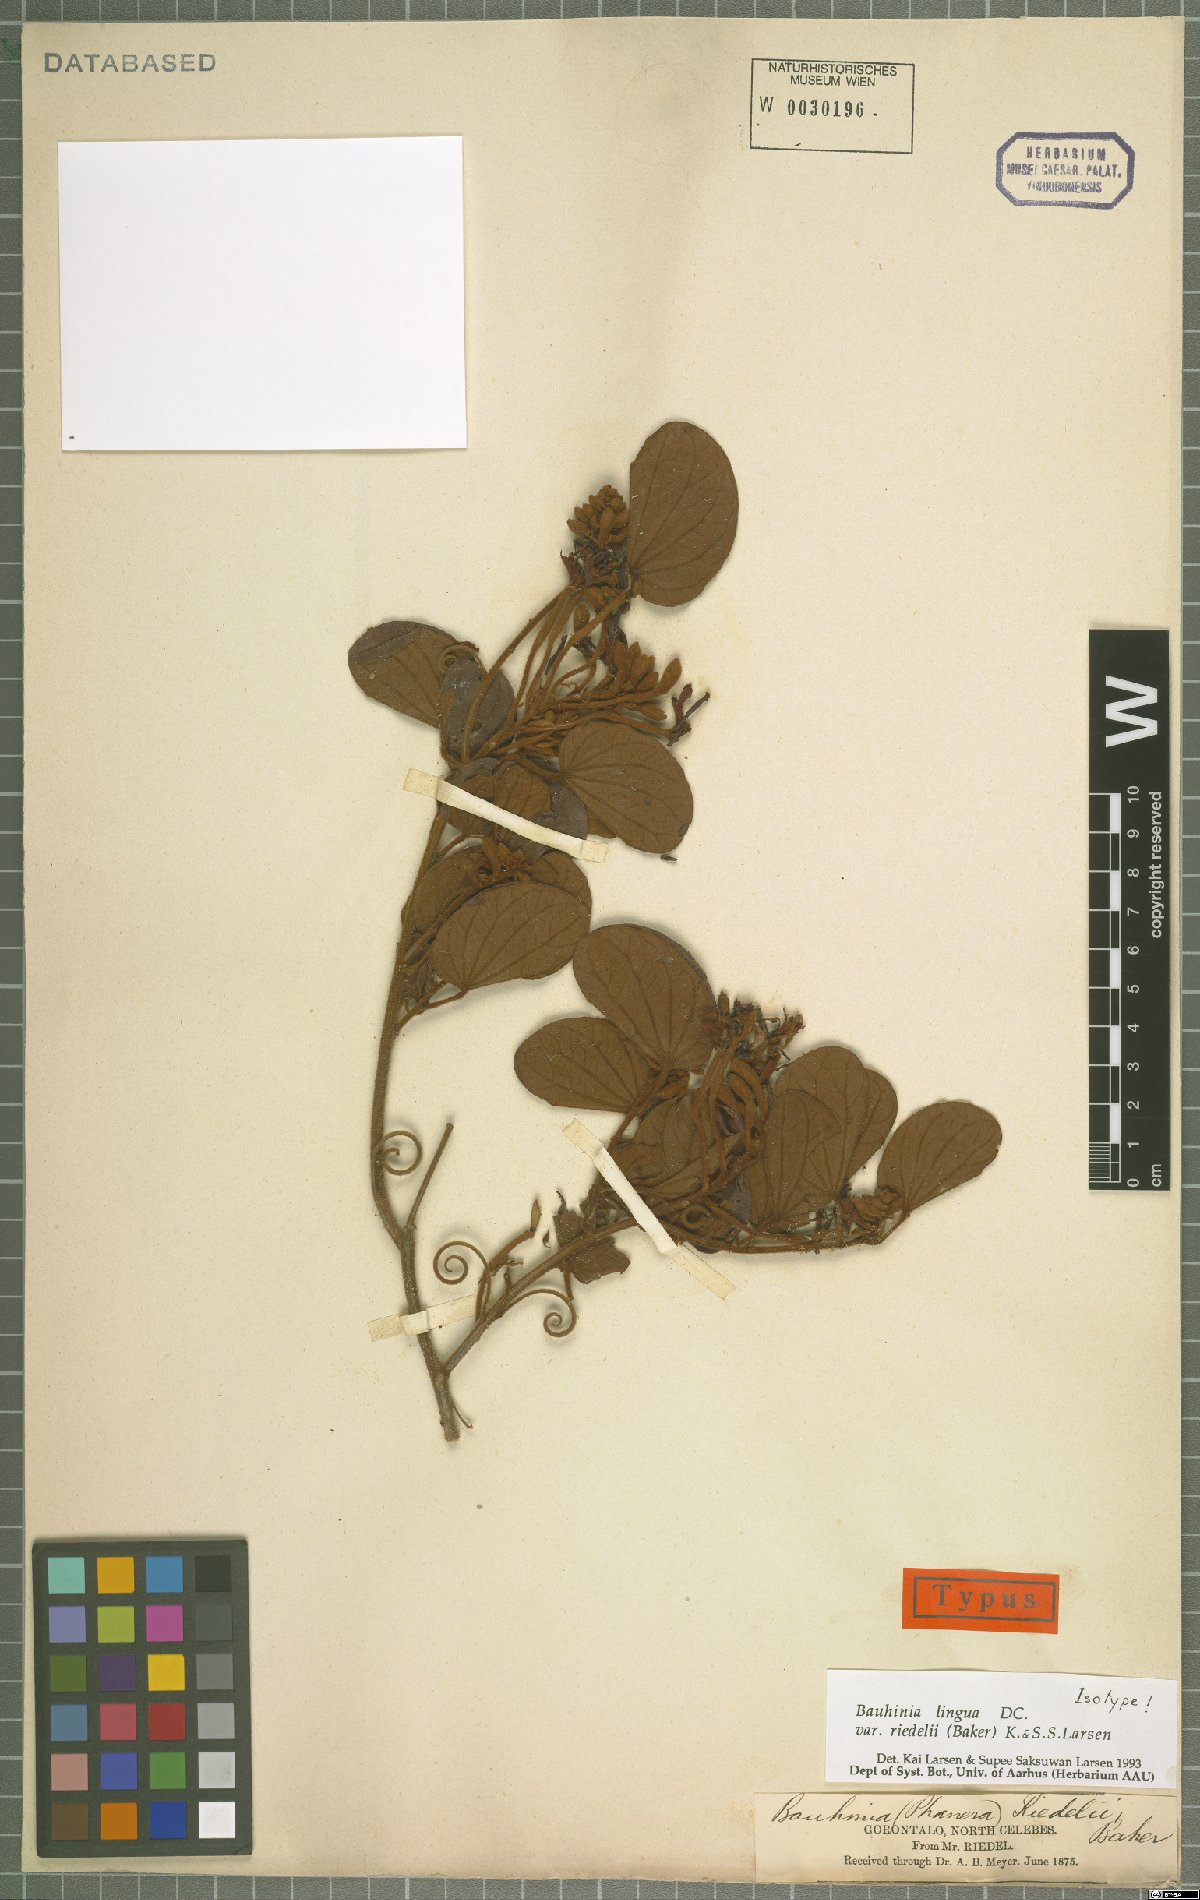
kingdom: Plantae
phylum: Tracheophyta
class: Magnoliopsida
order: Fabales
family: Fabaceae
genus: Phanera
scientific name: Phanera lingua
